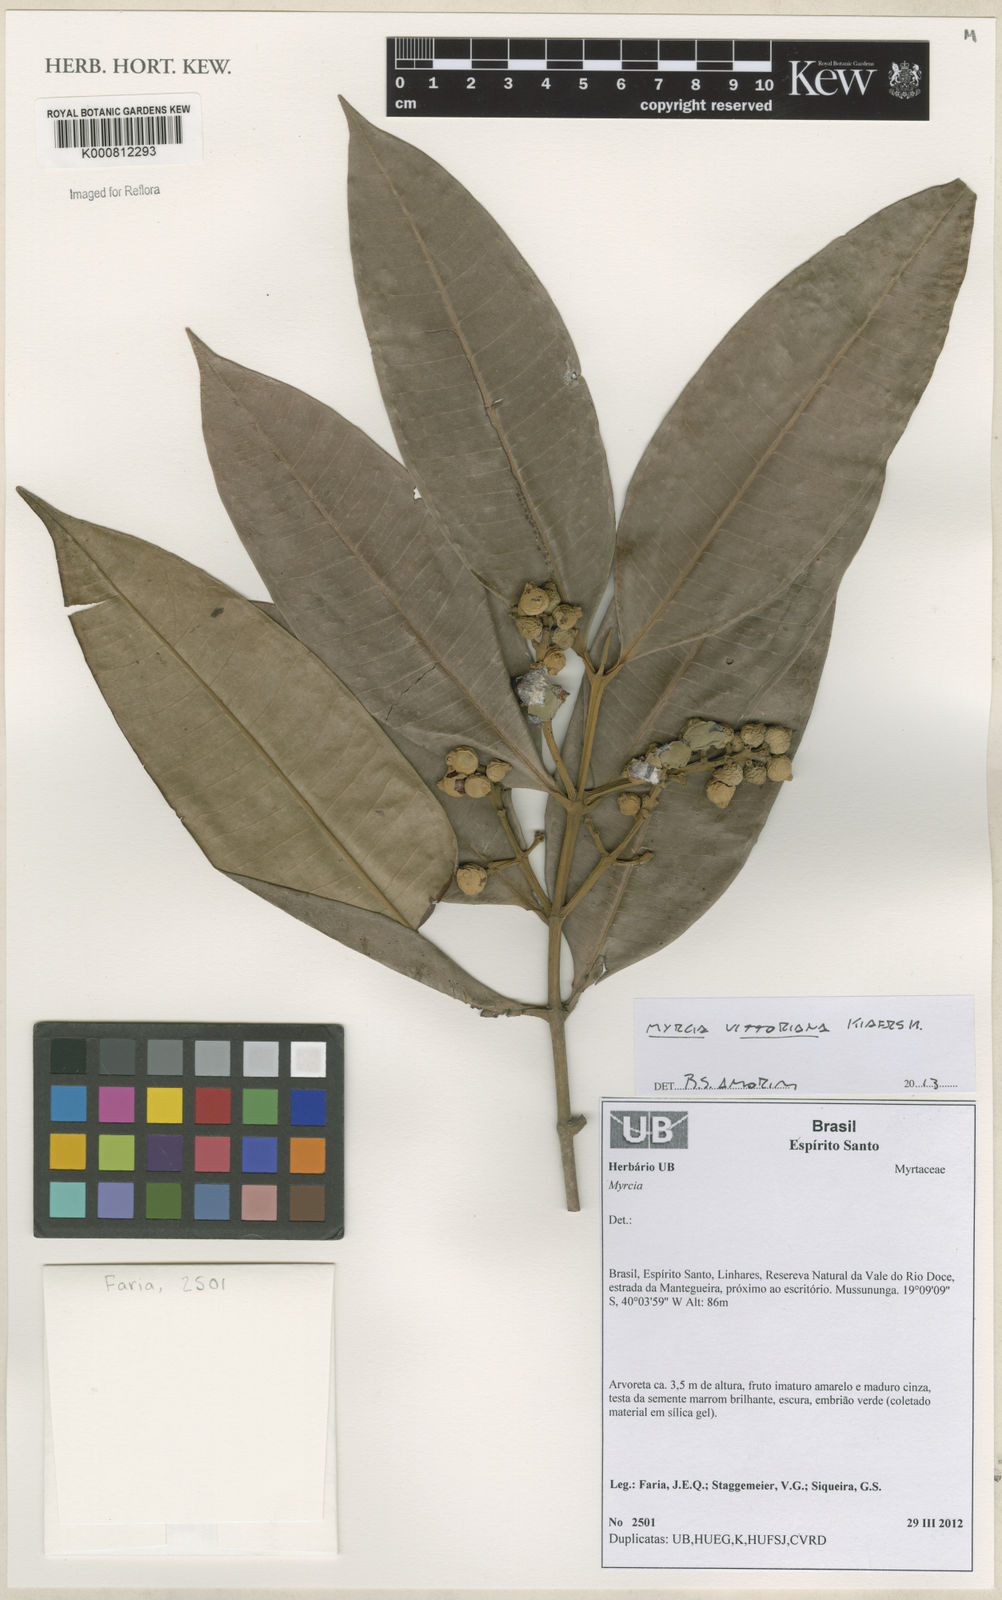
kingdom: Plantae
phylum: Tracheophyta
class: Magnoliopsida
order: Myrtales
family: Myrtaceae
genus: Myrcia
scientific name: Myrcia vittoriana
